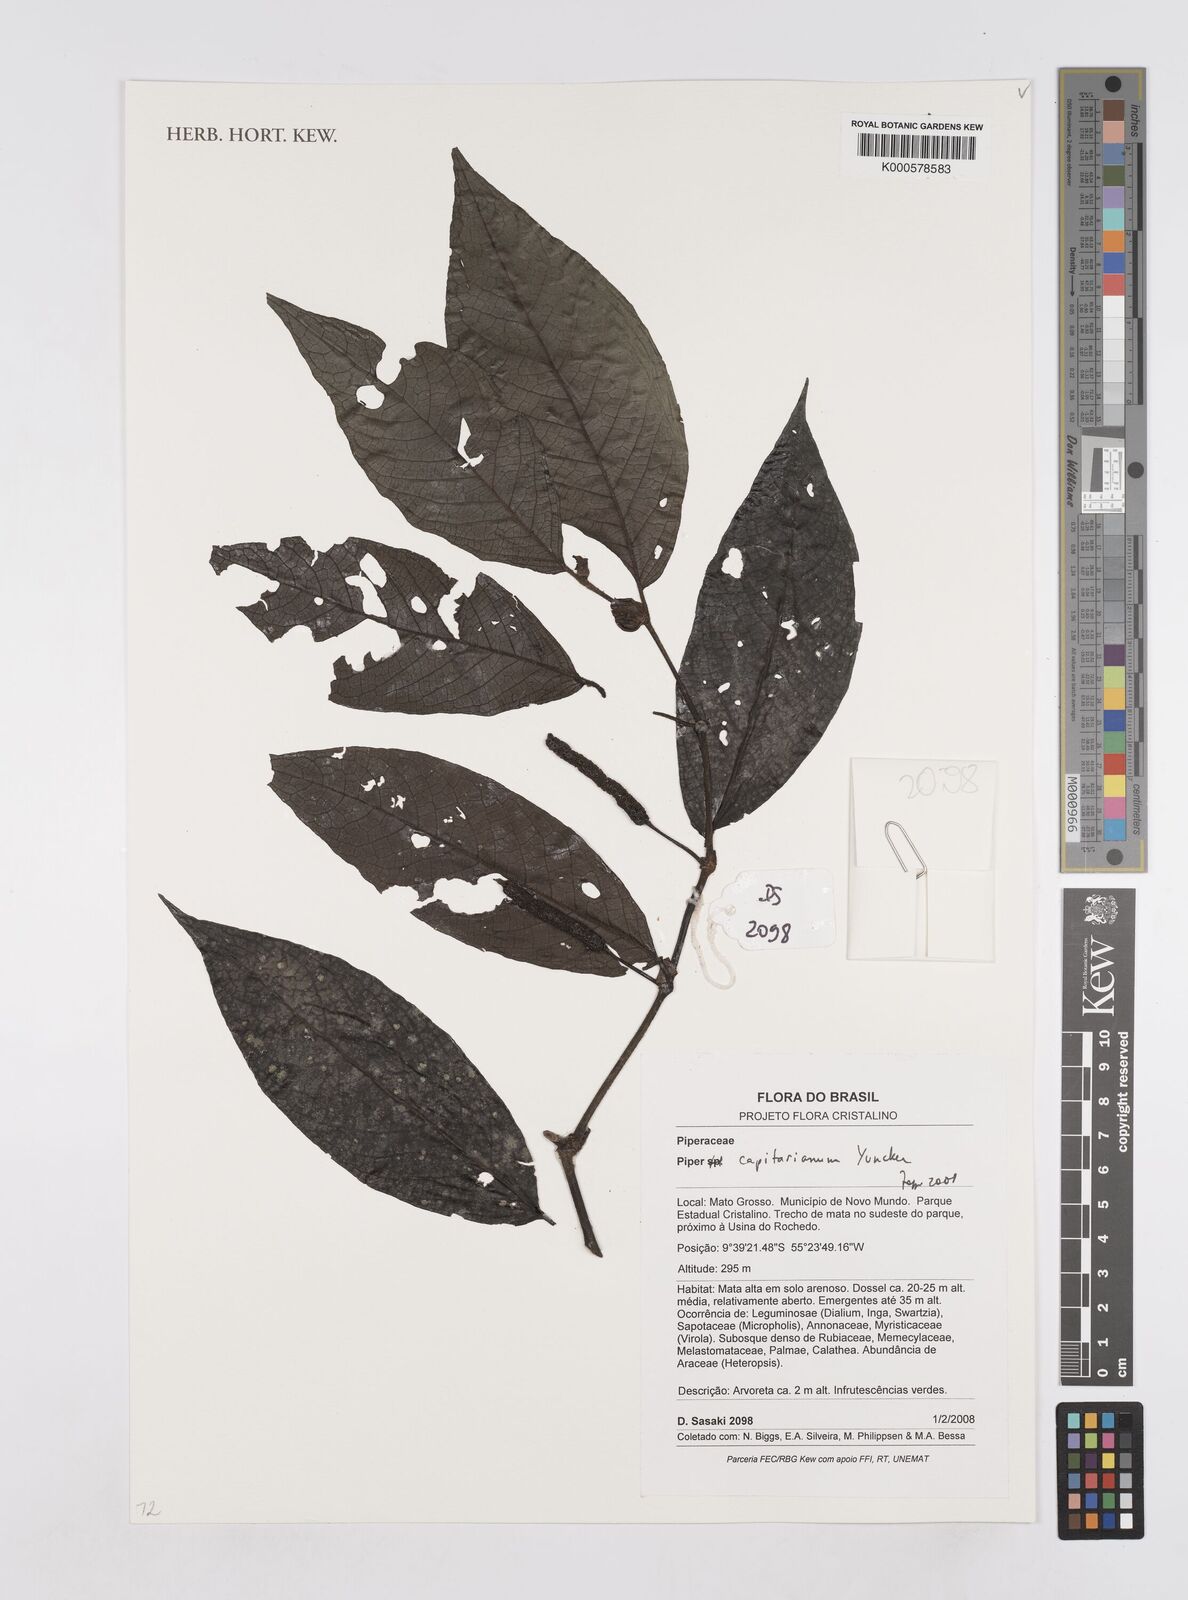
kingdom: Plantae
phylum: Tracheophyta
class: Magnoliopsida
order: Piperales
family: Piperaceae
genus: Piper
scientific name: Piper capitarianum
